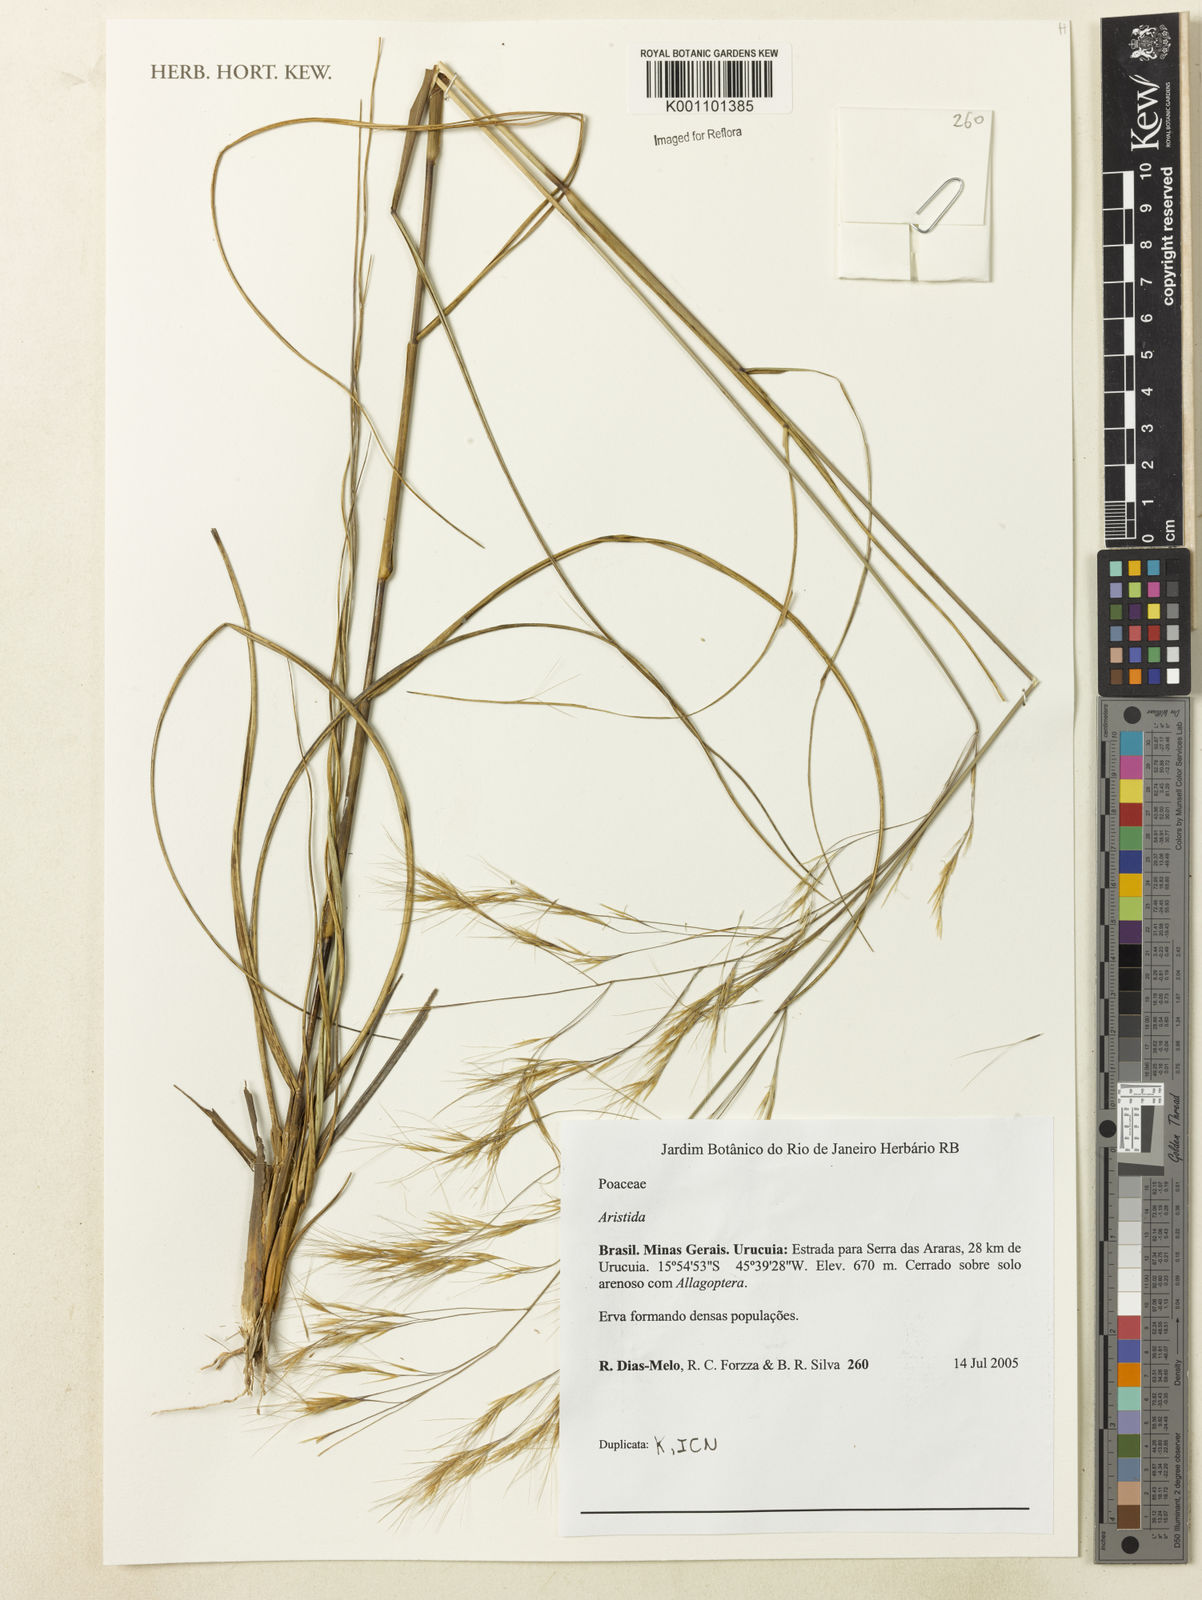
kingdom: Plantae
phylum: Tracheophyta
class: Liliopsida
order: Poales
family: Poaceae
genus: Aristida
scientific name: Aristida
